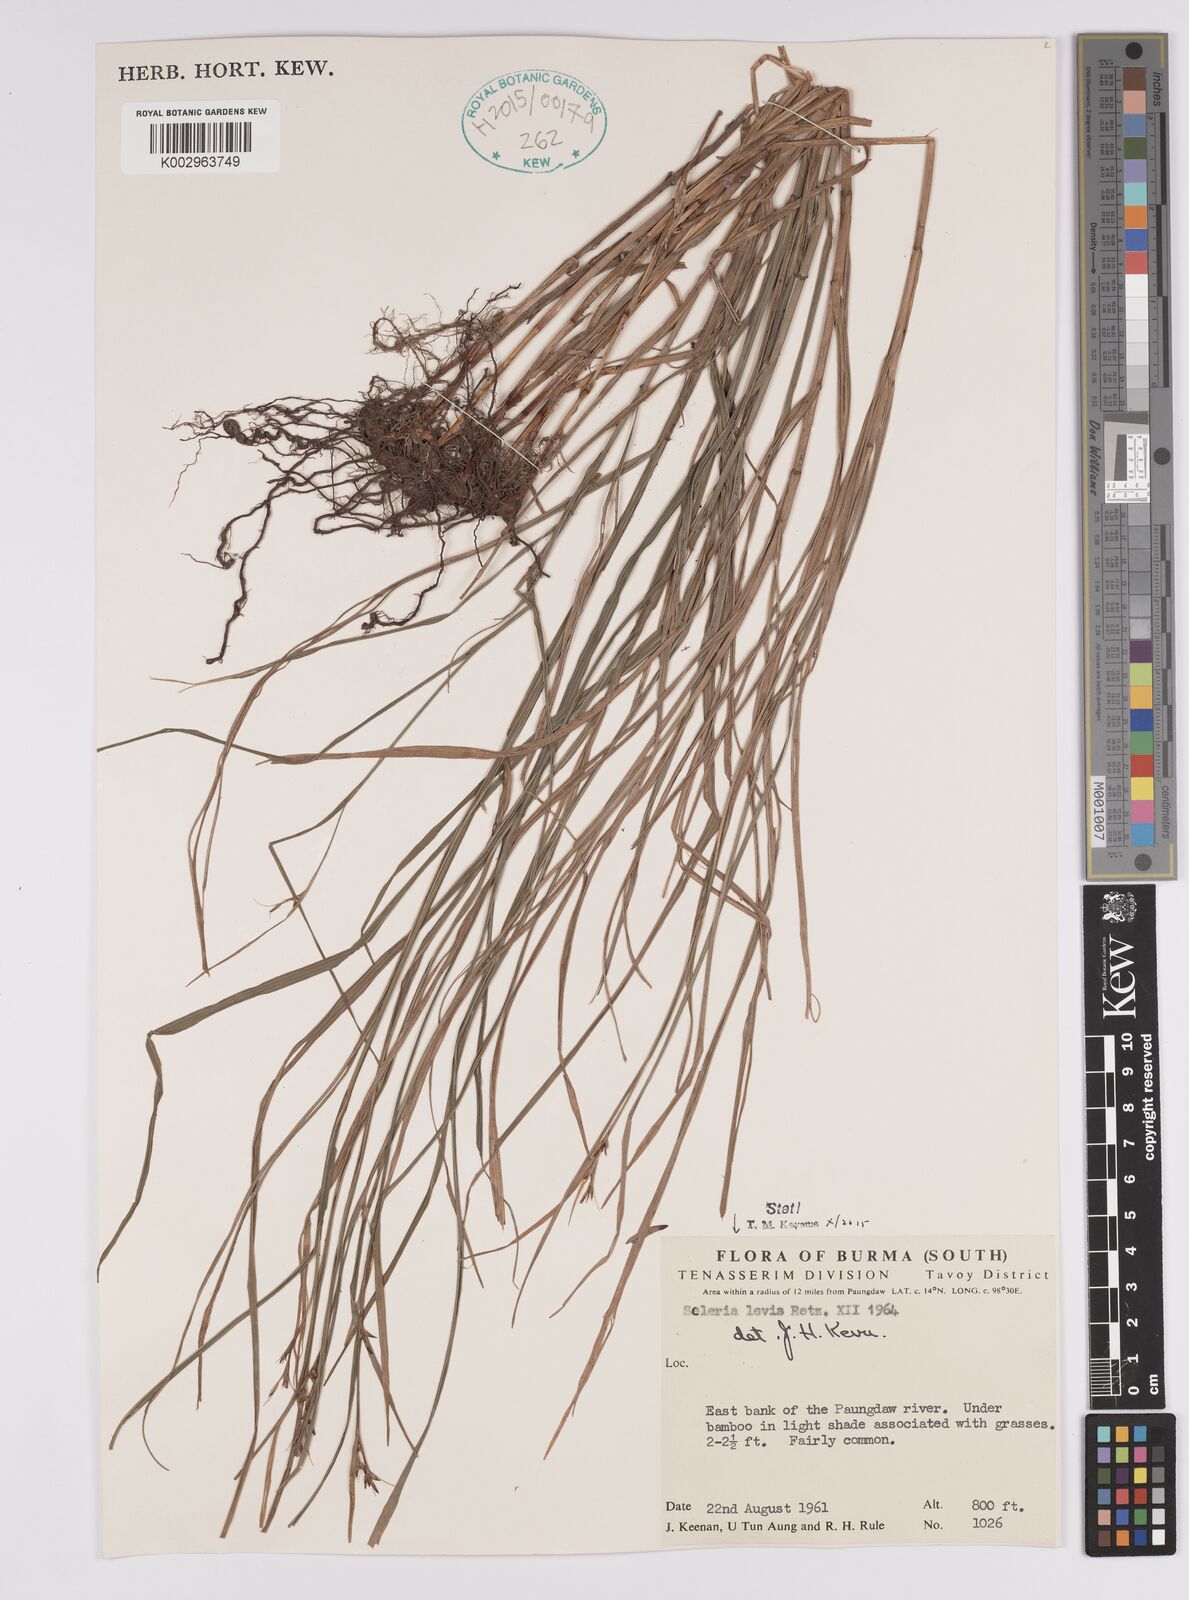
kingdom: Plantae
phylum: Tracheophyta
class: Liliopsida
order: Poales
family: Cyperaceae
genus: Scleria
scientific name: Scleria levis
